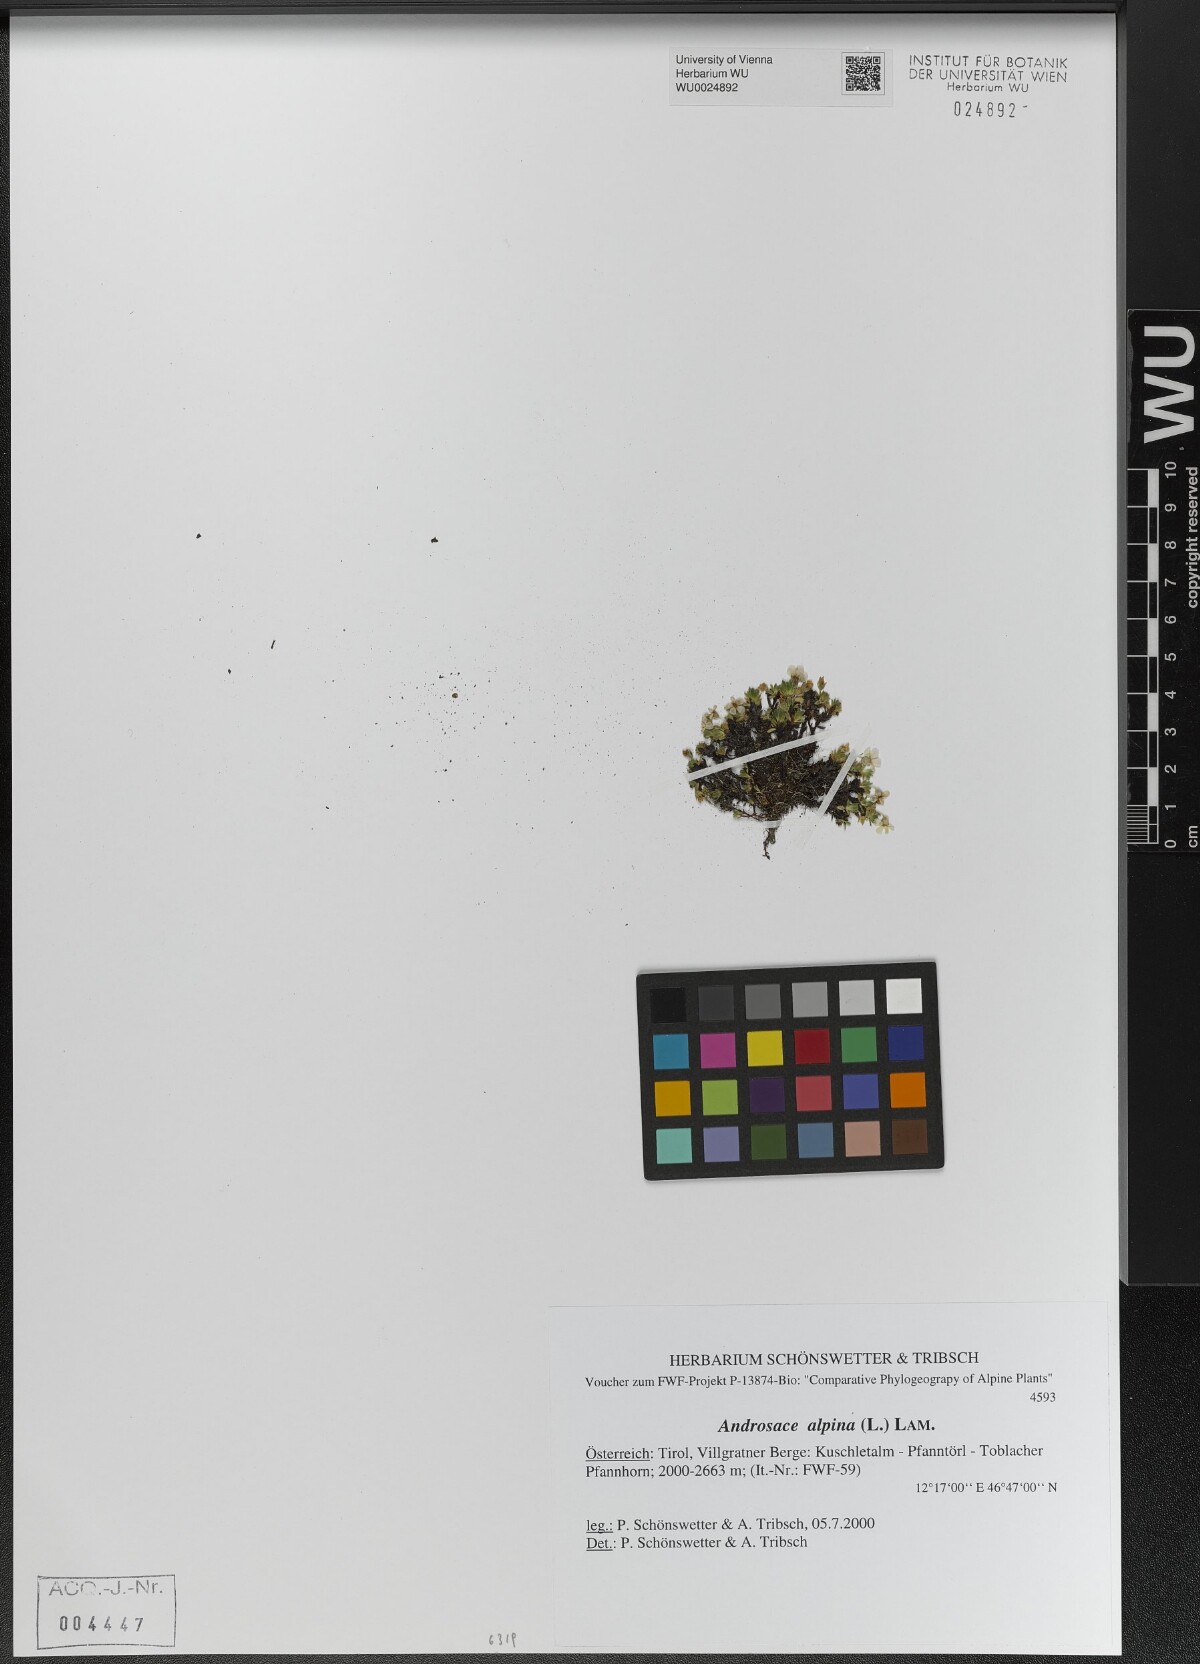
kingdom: Plantae
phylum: Tracheophyta
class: Magnoliopsida
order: Ericales
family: Primulaceae
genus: Androsace
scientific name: Androsace alpina
